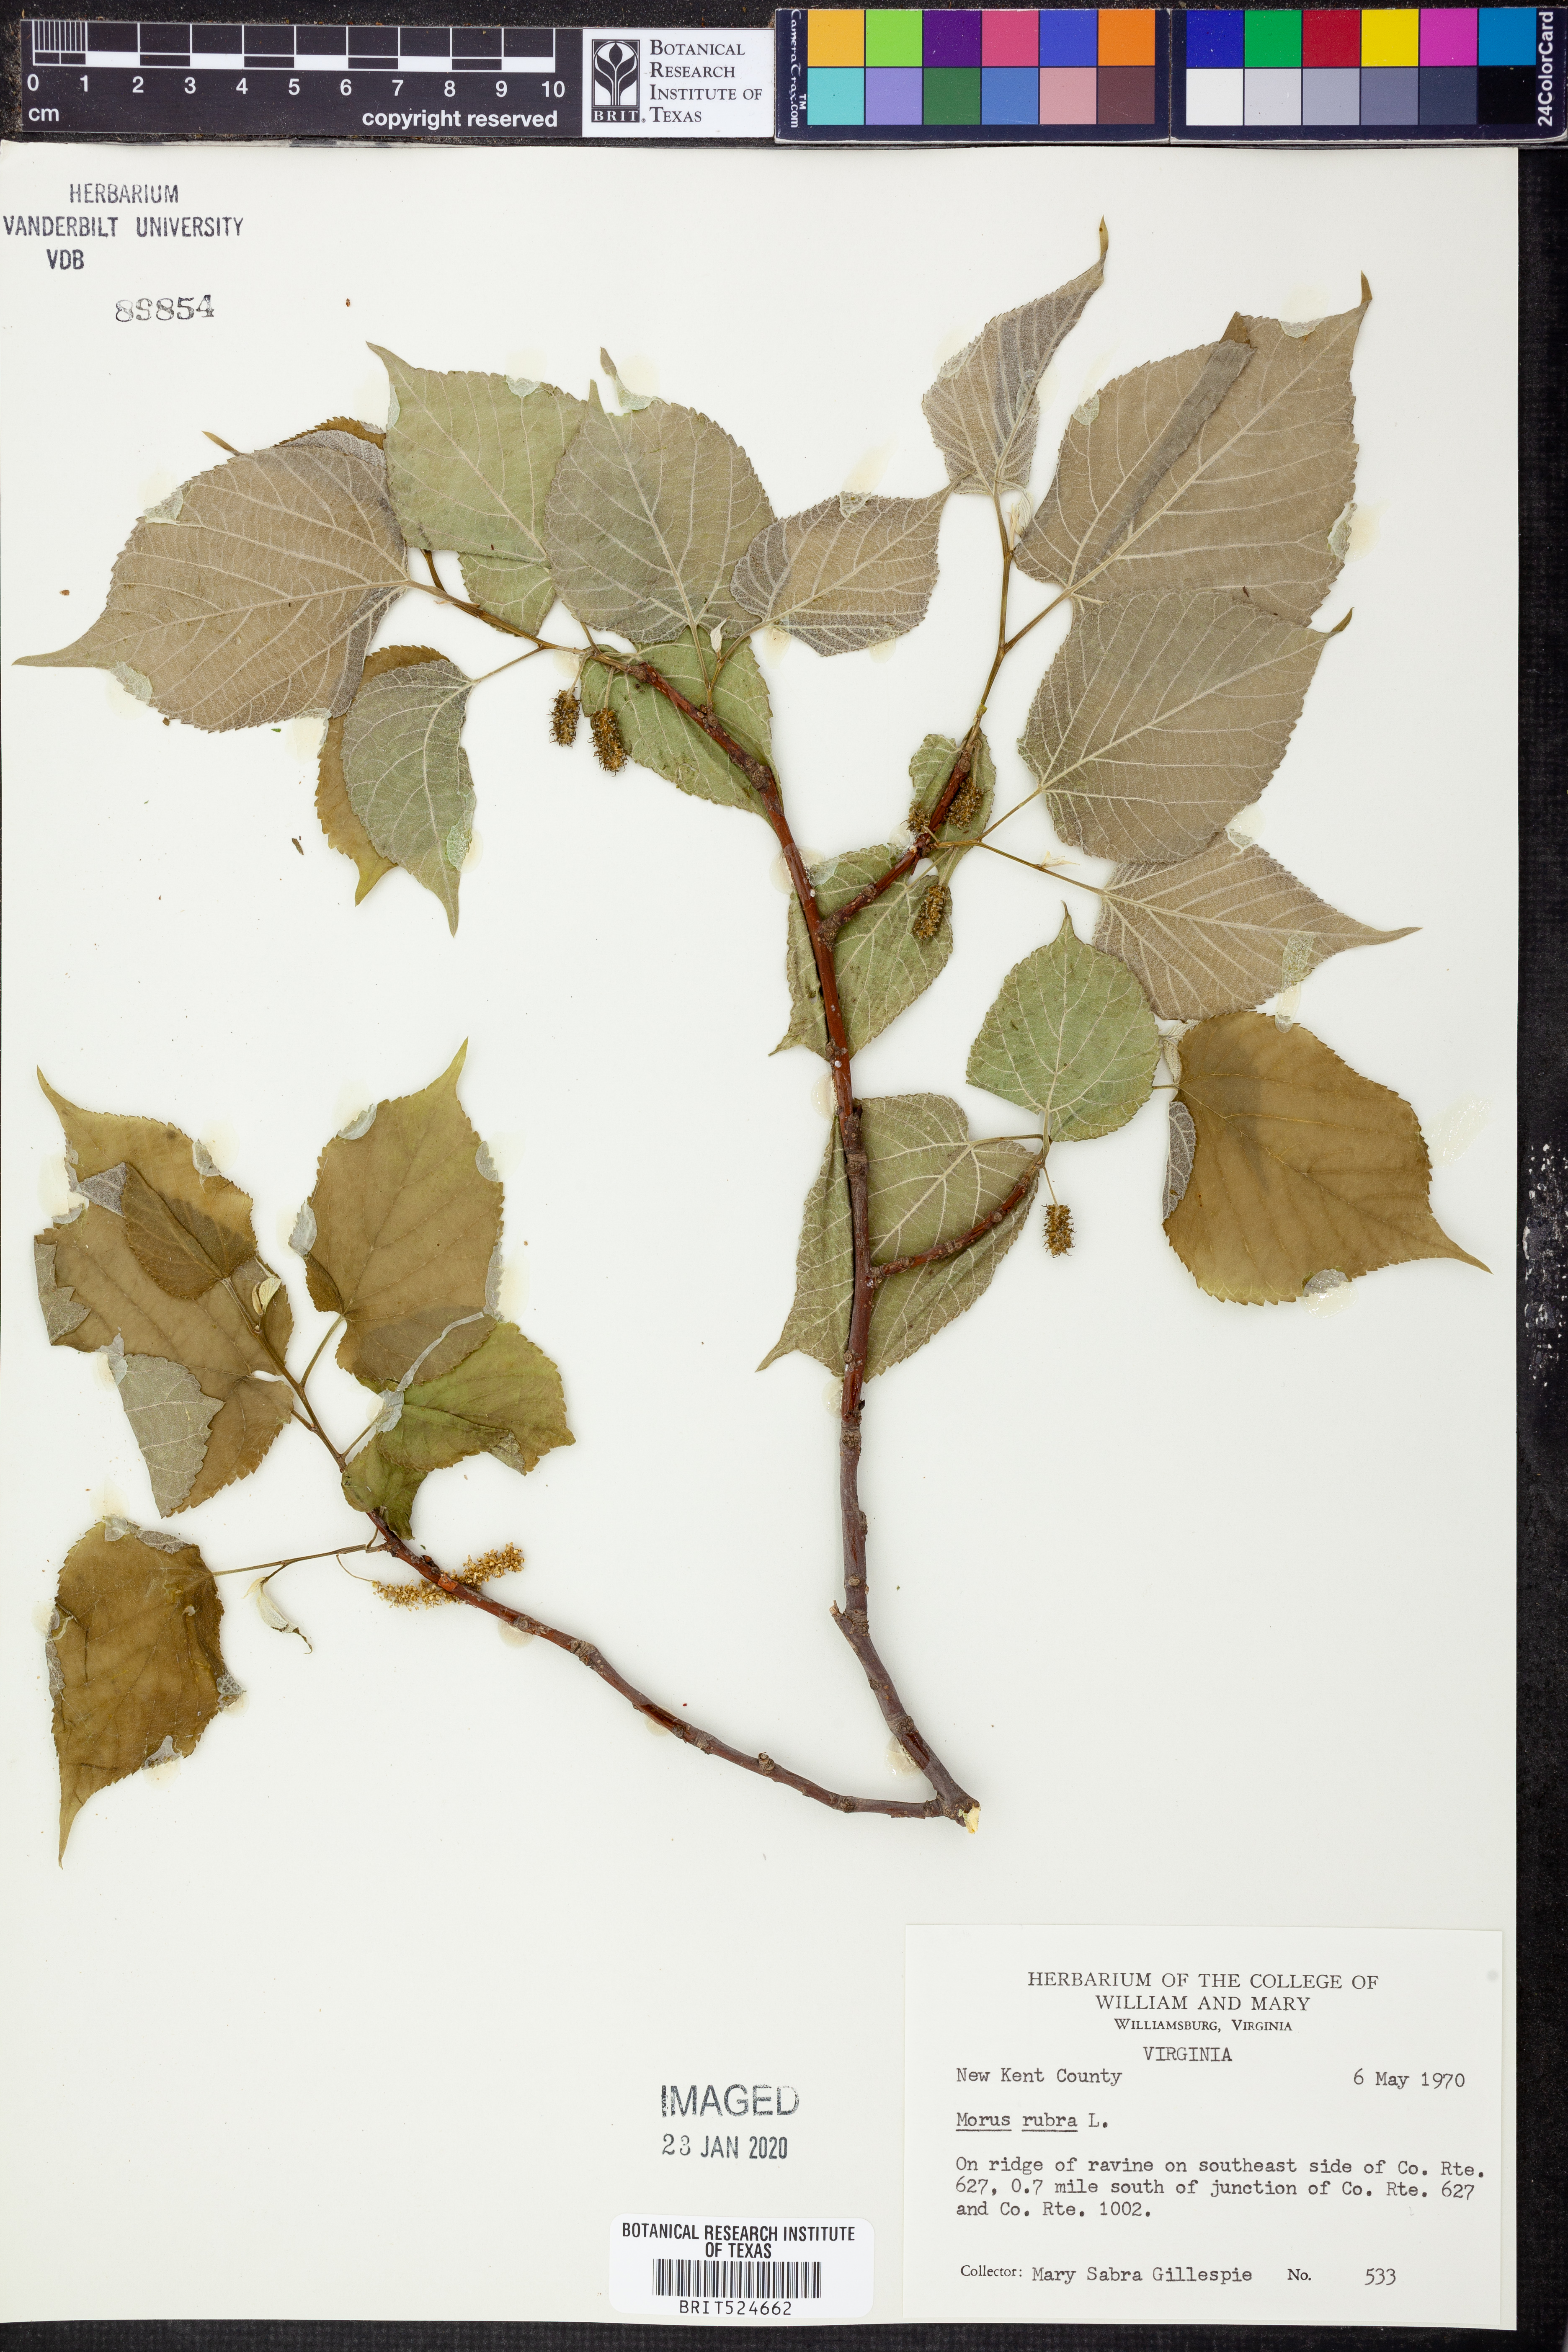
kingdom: Plantae
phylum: Tracheophyta
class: Magnoliopsida
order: Rosales
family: Moraceae
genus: Morus
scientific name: Morus rubra
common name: Red mulberry
